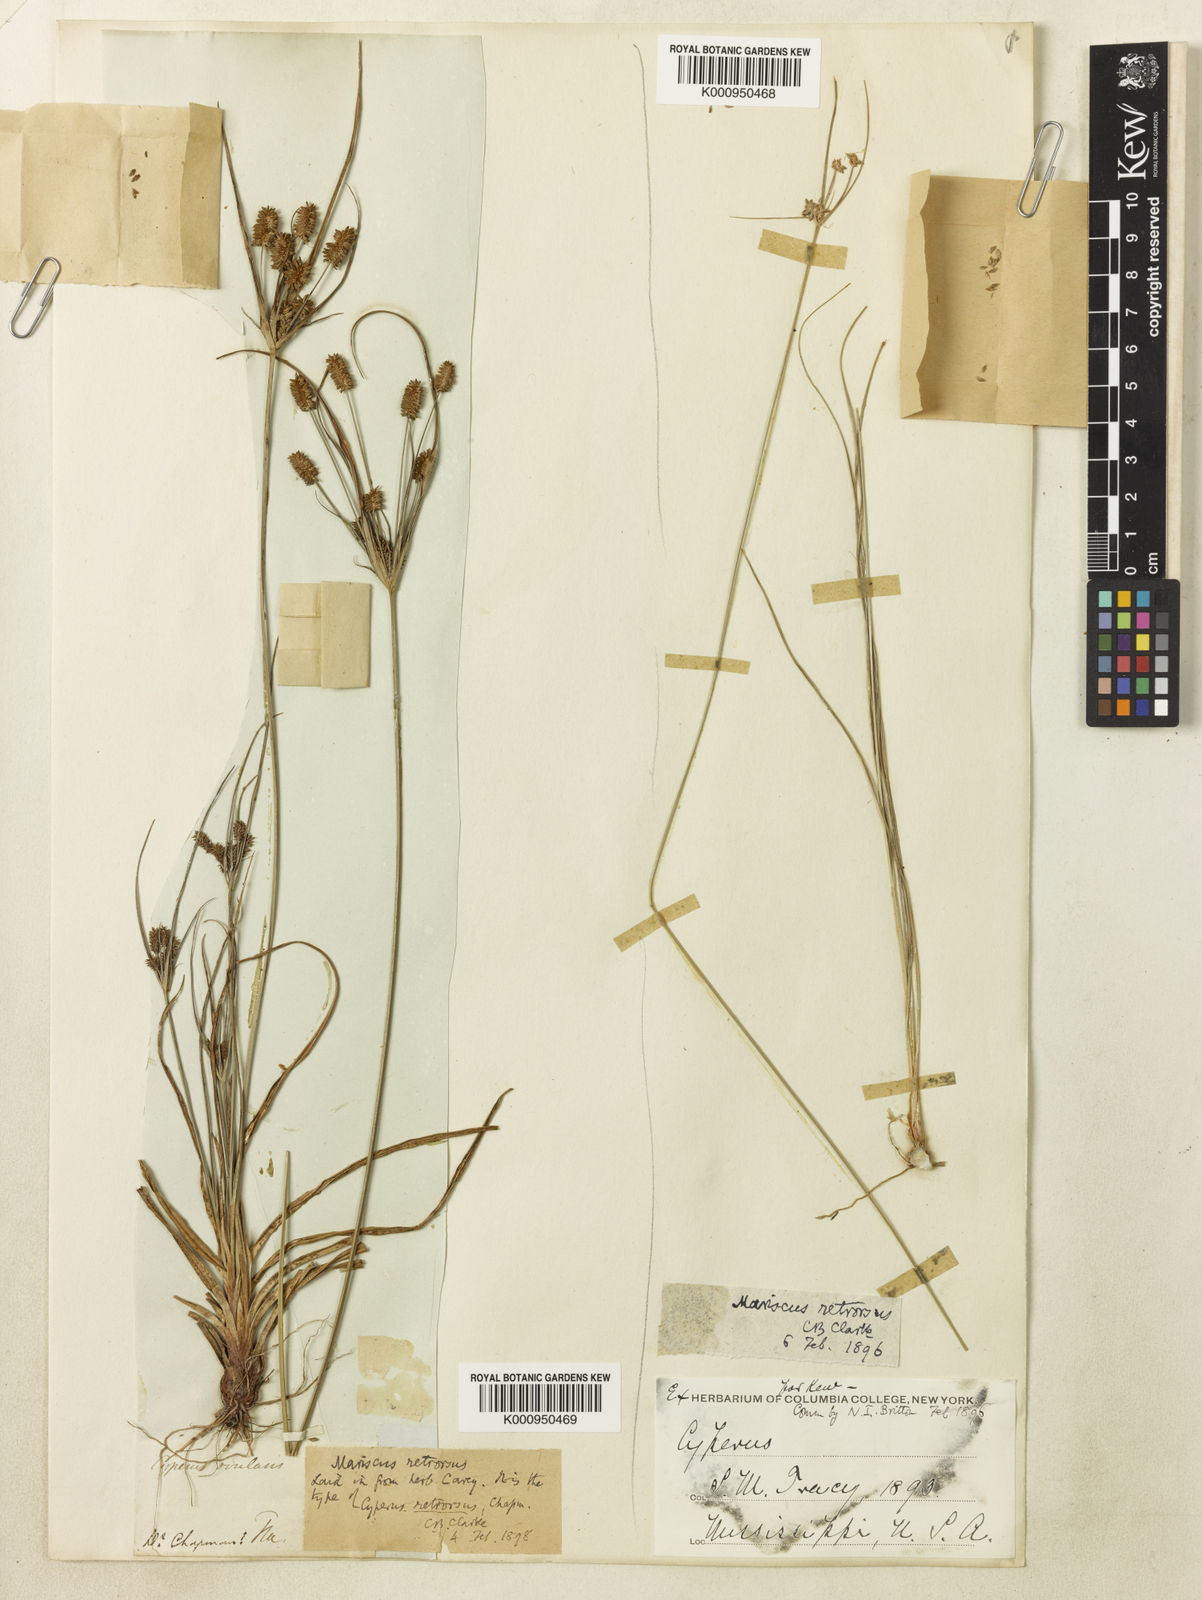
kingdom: Plantae
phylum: Tracheophyta
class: Liliopsida
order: Poales
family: Cyperaceae
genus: Cyperus
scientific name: Cyperus retrorsus
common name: Pinebarren flat sedge
